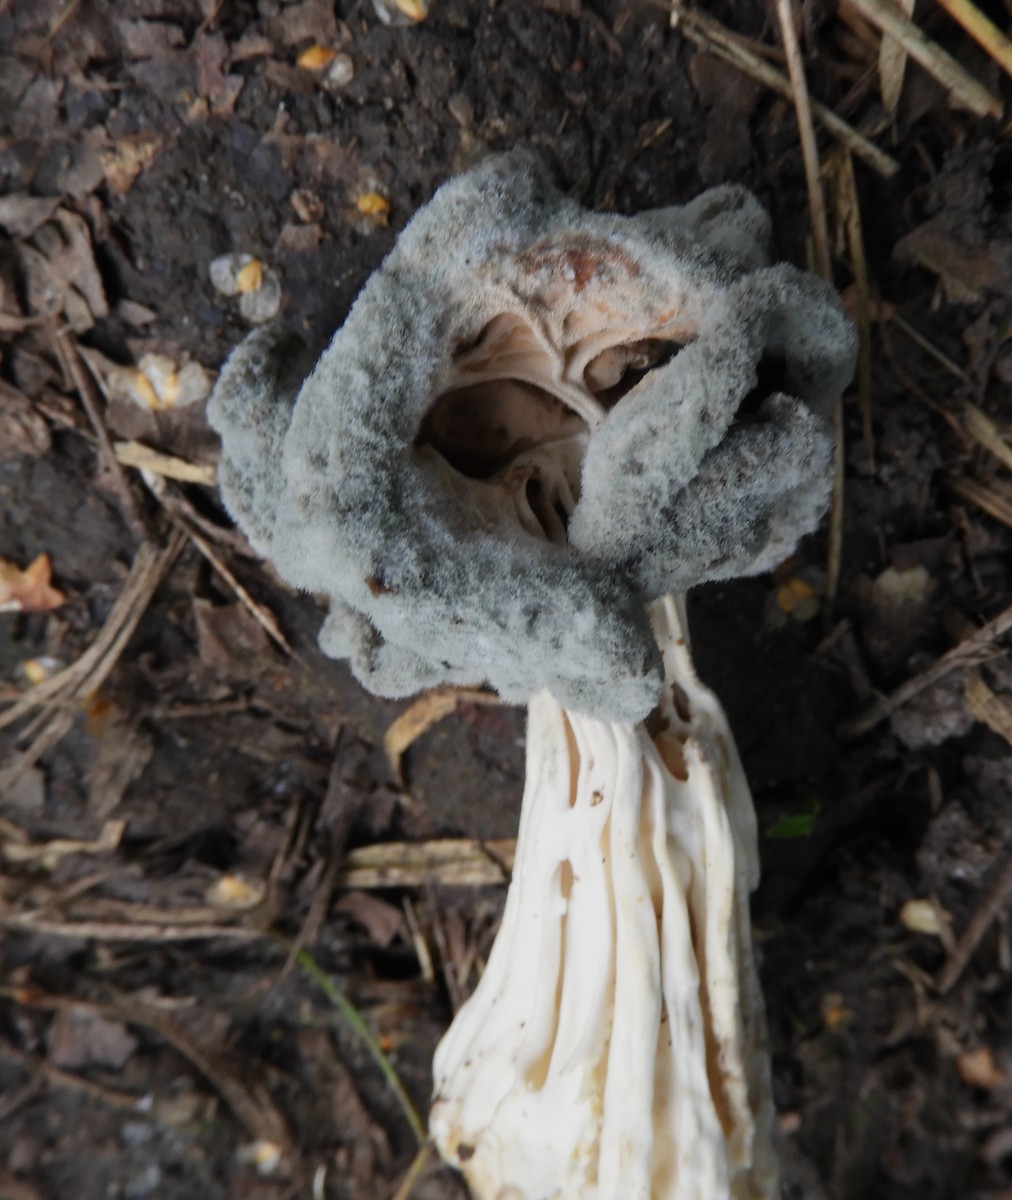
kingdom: Fungi
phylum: Ascomycota
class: Pezizomycetes
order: Pezizales
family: Helvellaceae
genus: Helvella
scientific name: Helvella crispa
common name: kruset foldhat
